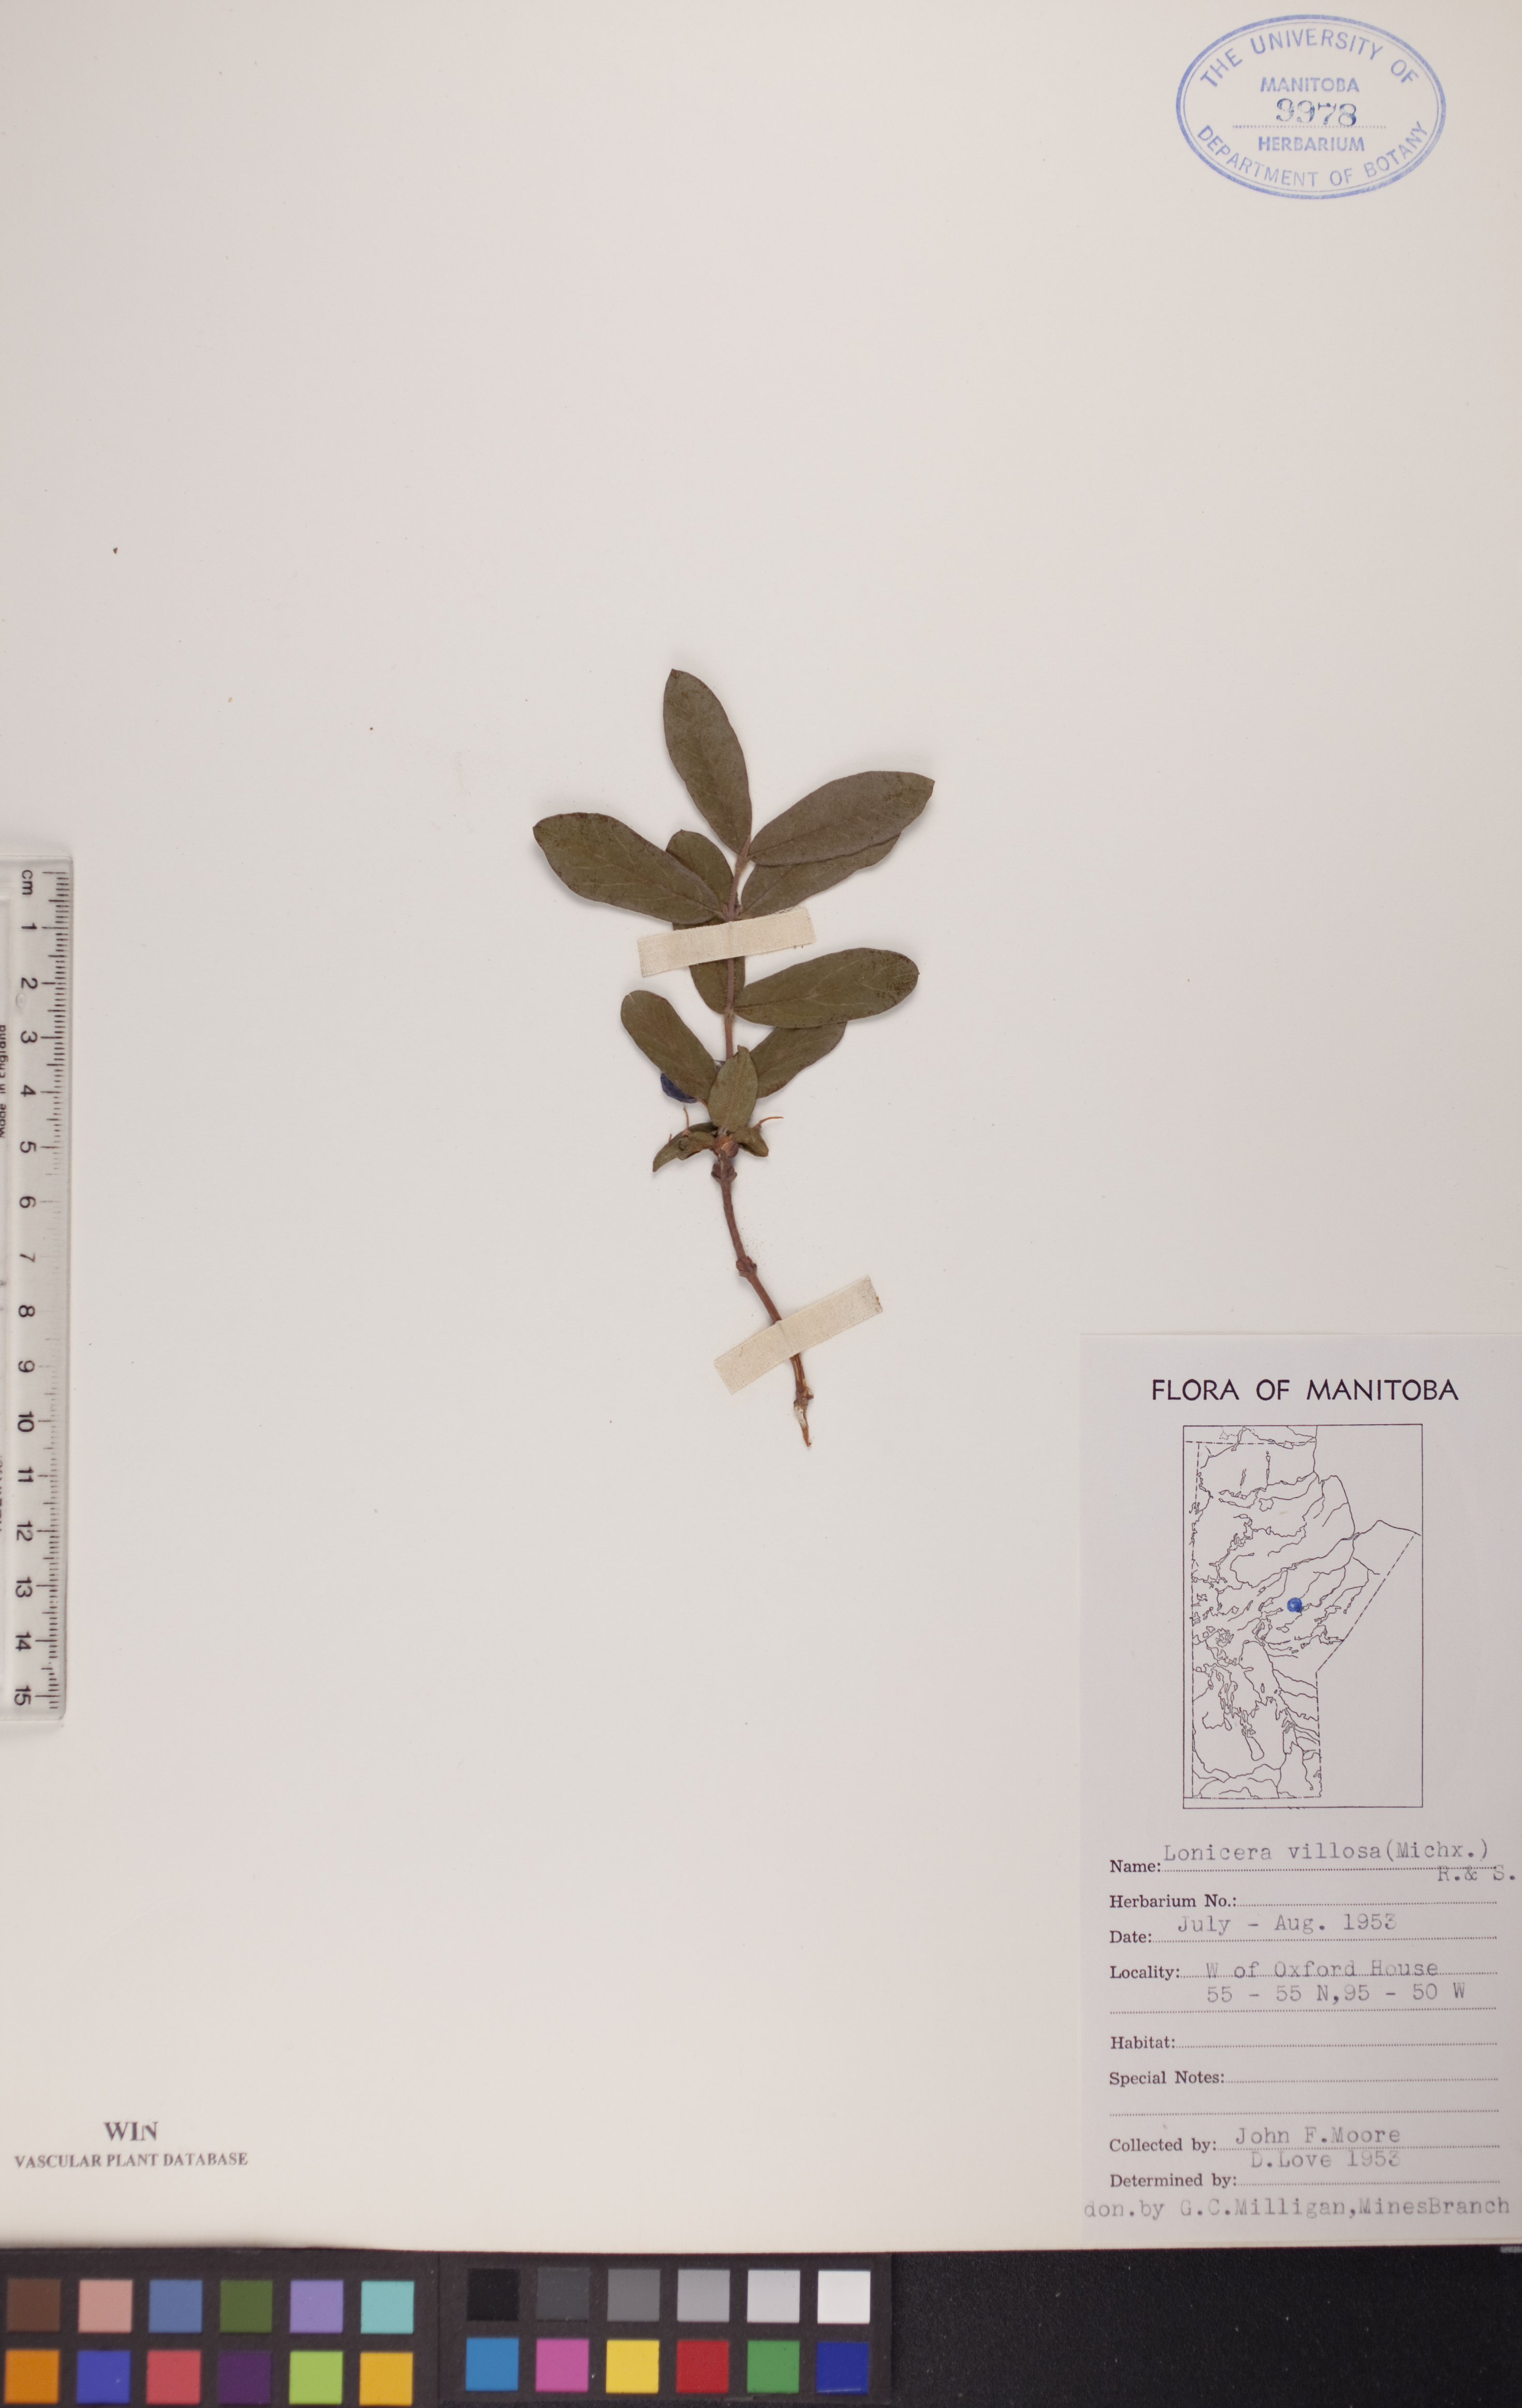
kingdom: Plantae
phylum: Tracheophyta
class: Magnoliopsida
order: Dipsacales
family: Caprifoliaceae
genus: Lonicera
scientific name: Lonicera villosa
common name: Mountain fly-honeysuckle
